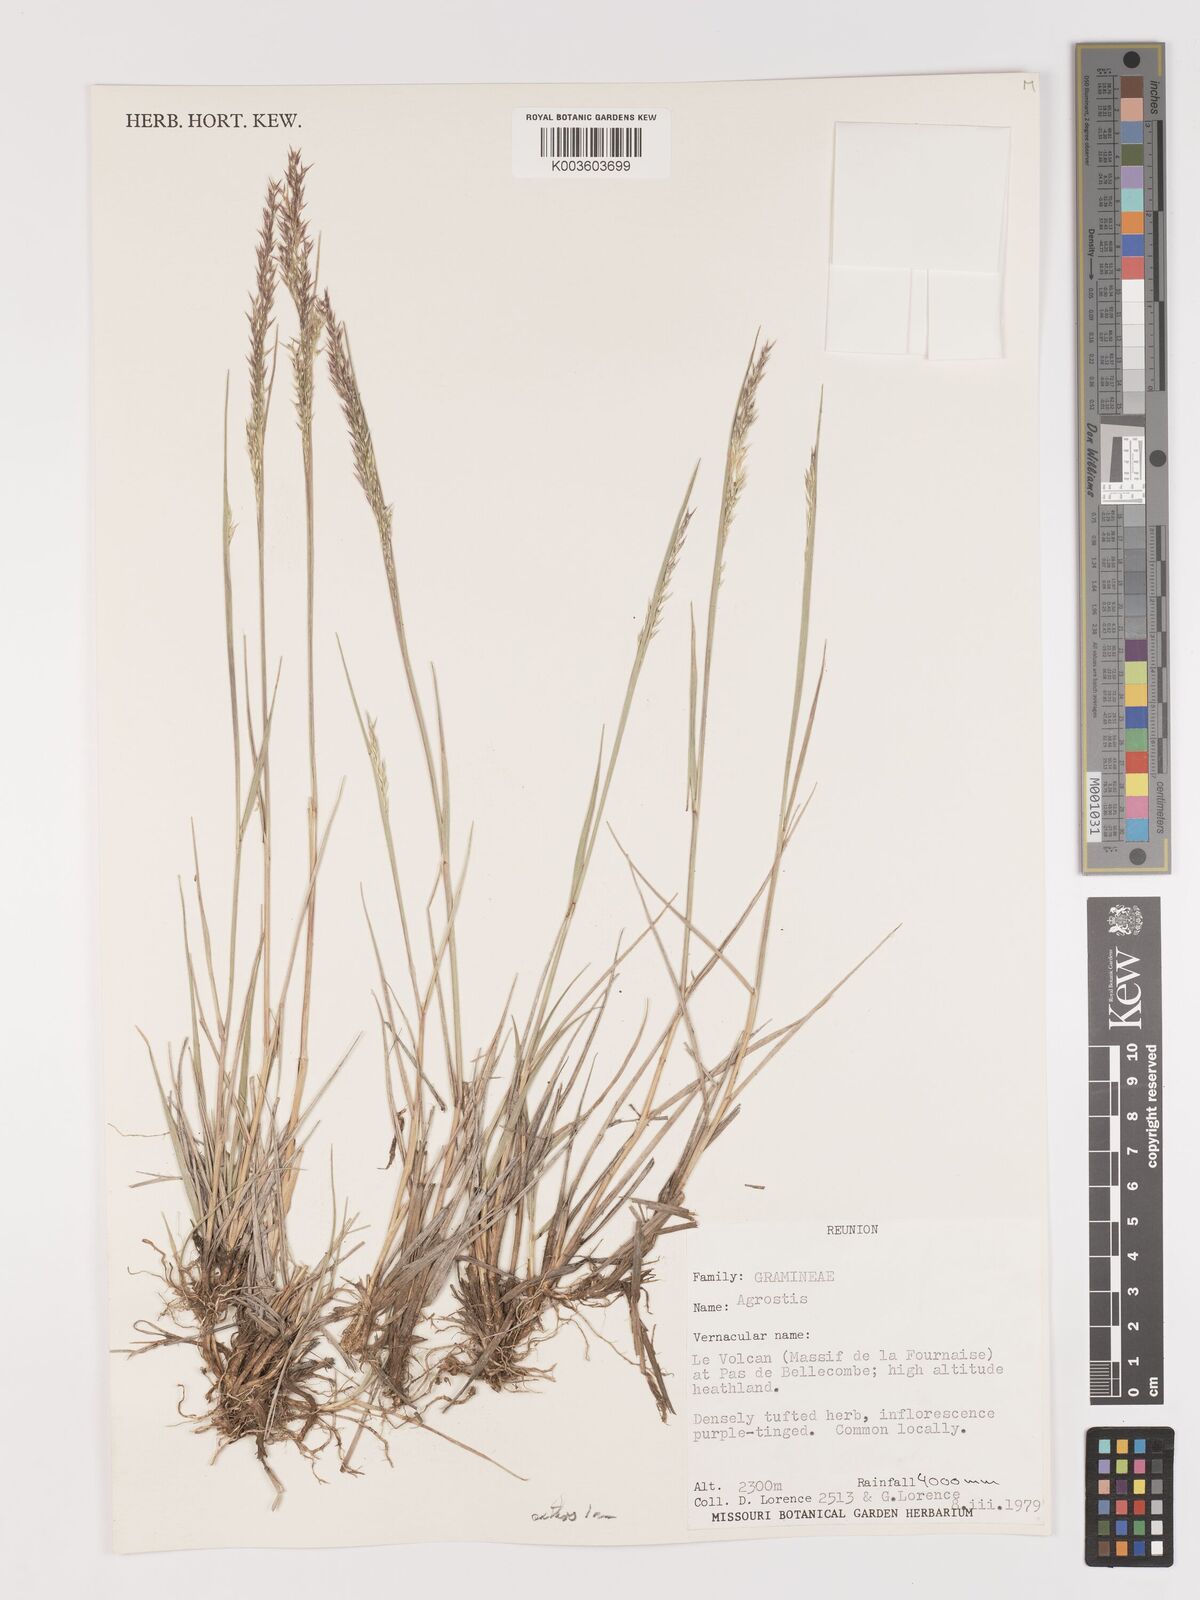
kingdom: Plantae
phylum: Tracheophyta
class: Liliopsida
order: Poales
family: Poaceae
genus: Agrostis
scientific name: Agrostis salaziensis
